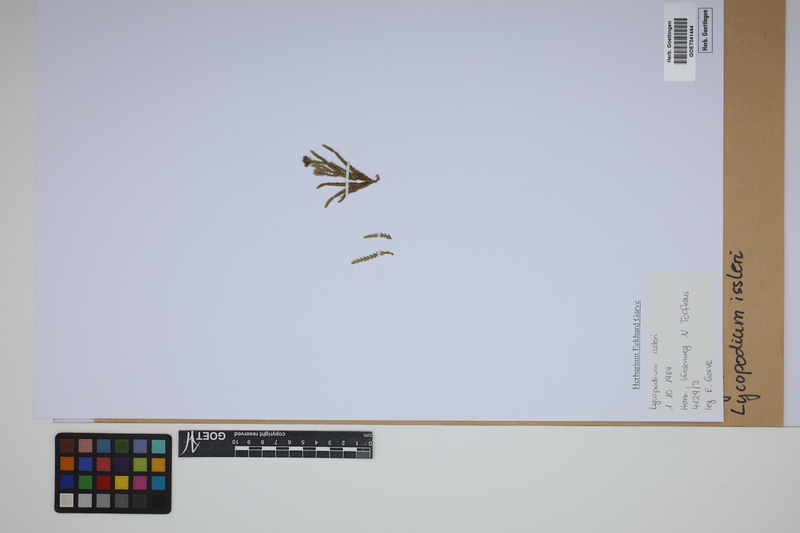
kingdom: Plantae
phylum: Tracheophyta
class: Lycopodiopsida
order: Lycopodiales
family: Lycopodiaceae
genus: Diphasiastrum
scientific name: Diphasiastrum issleri
